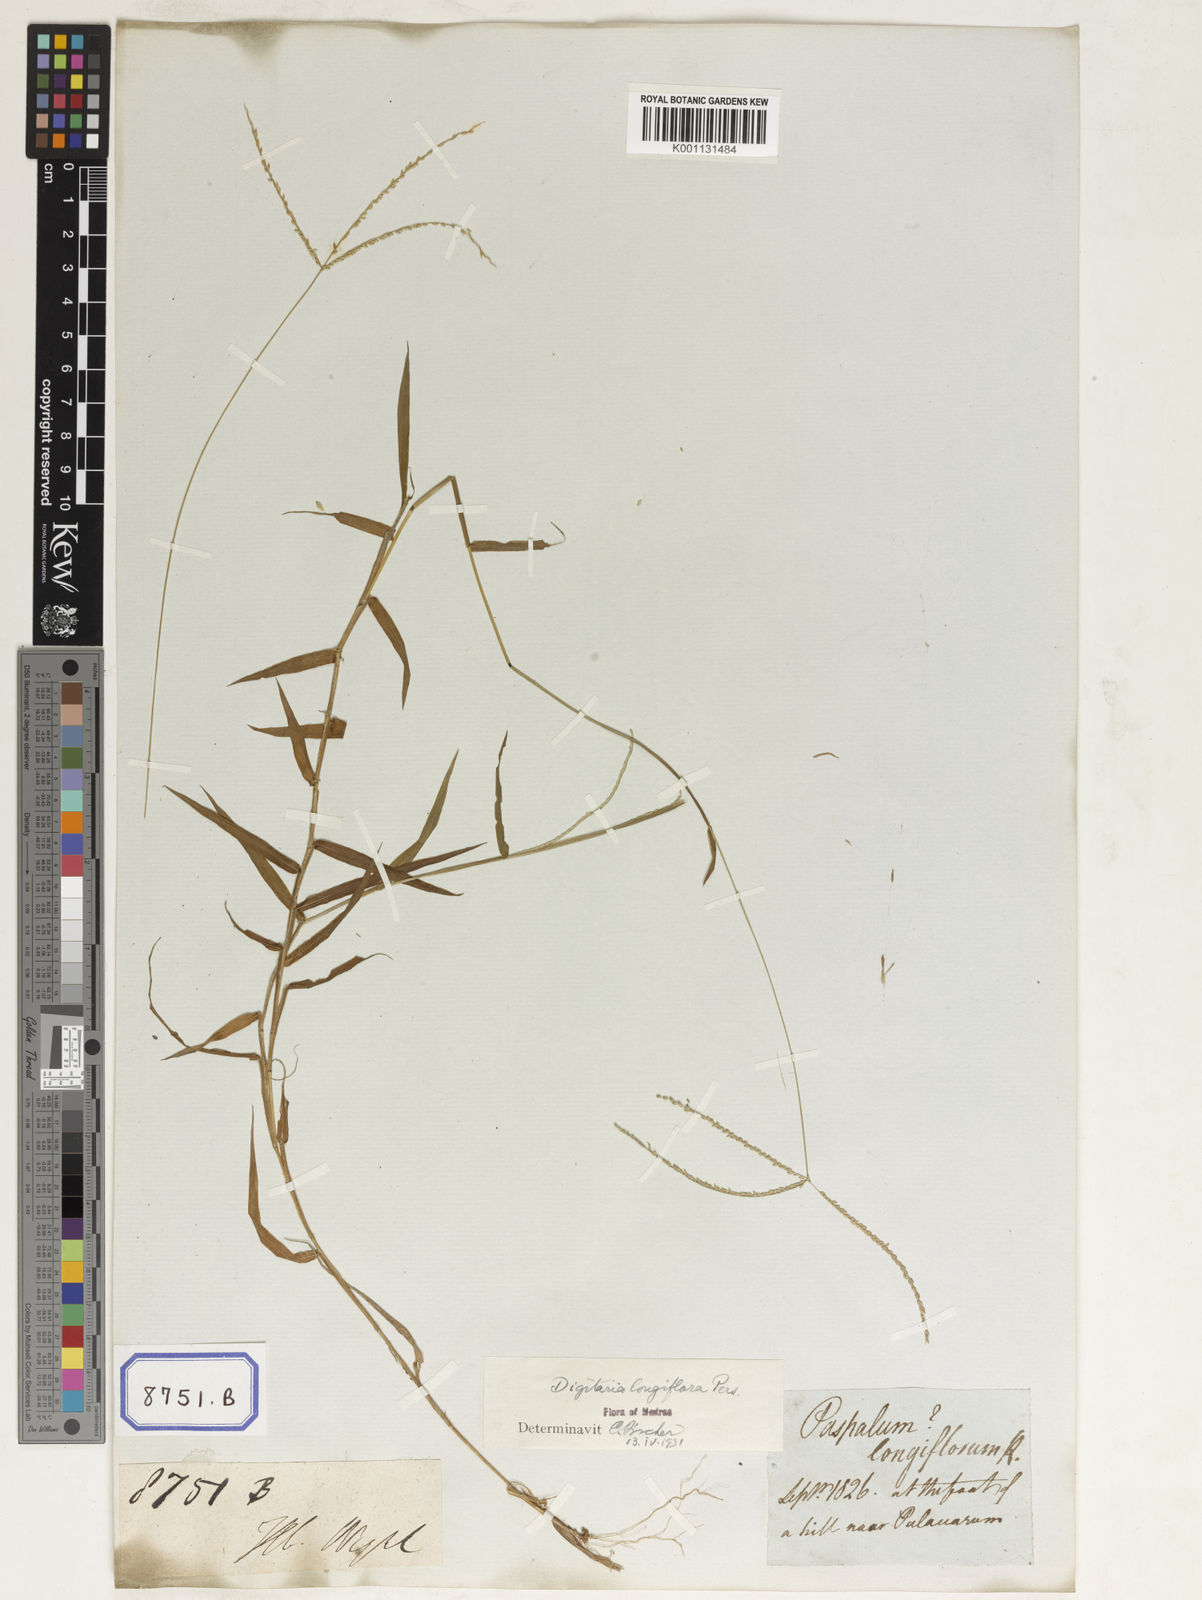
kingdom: Plantae
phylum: Tracheophyta
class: Liliopsida
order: Poales
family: Poaceae
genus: Paspalum
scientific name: Paspalum
